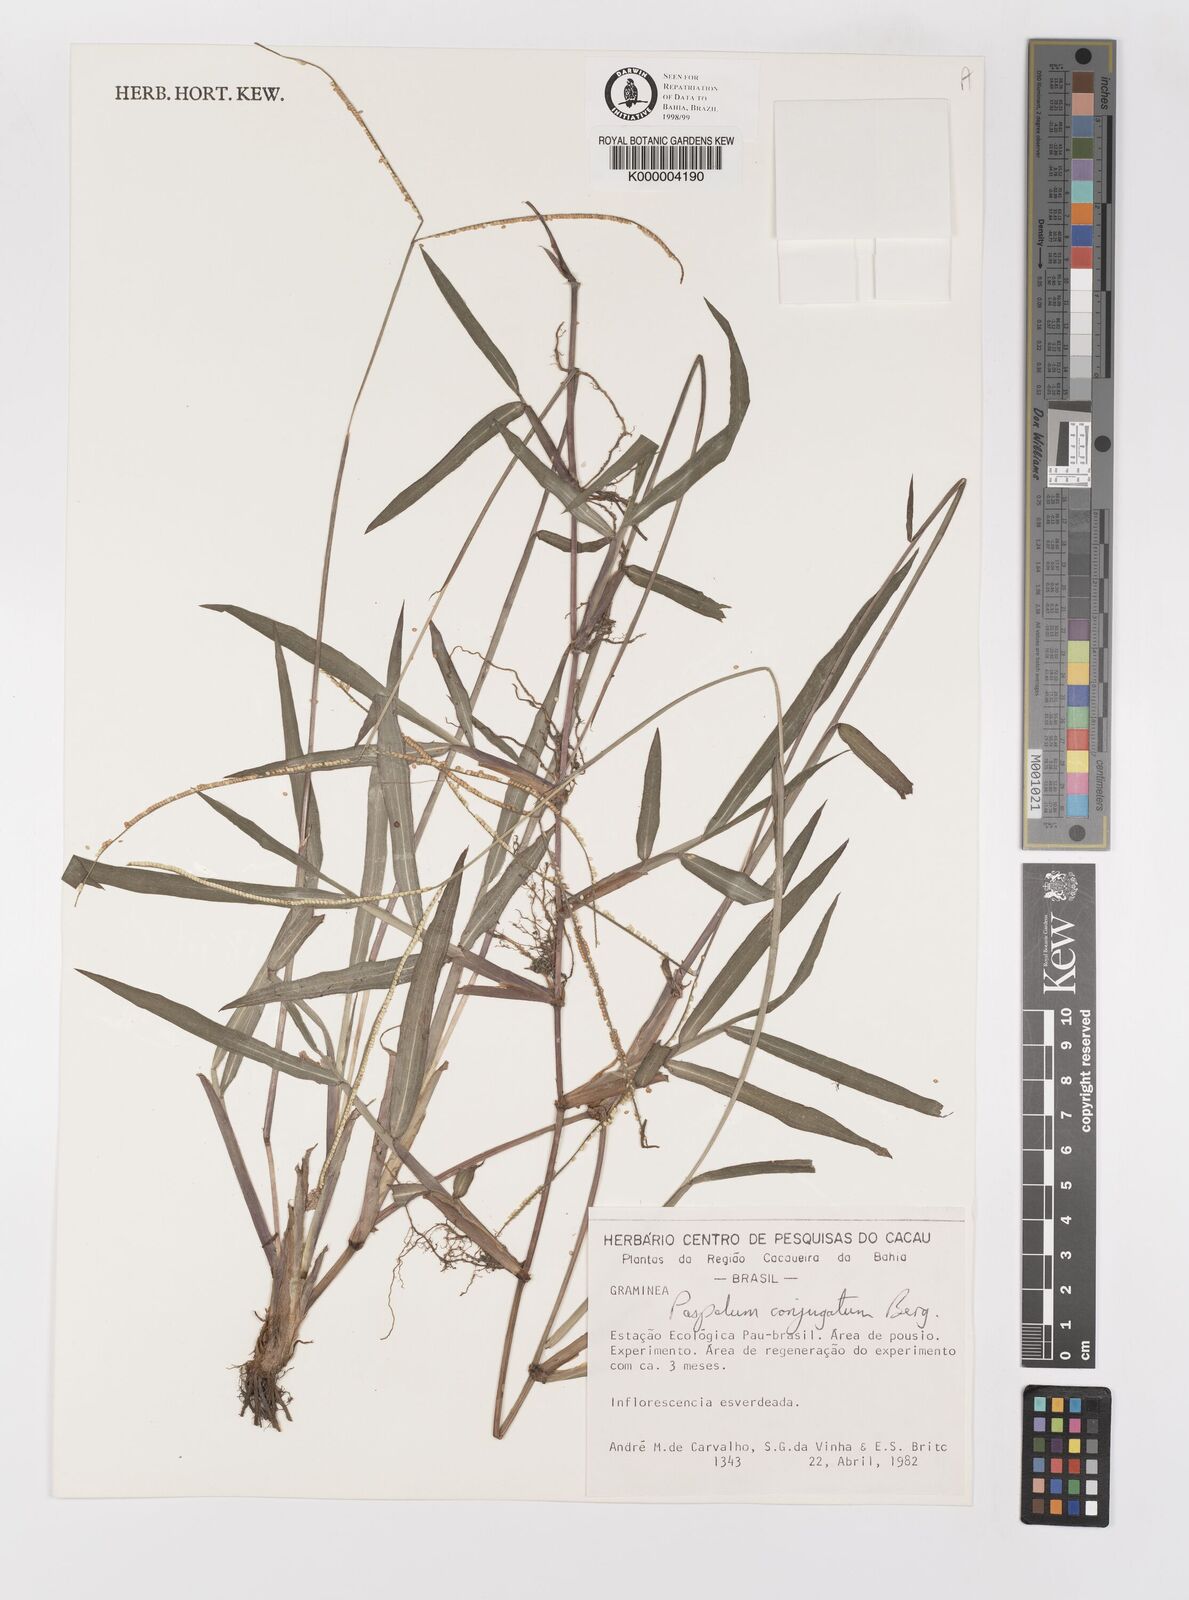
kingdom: Plantae
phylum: Tracheophyta
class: Liliopsida
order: Poales
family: Poaceae
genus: Paspalum
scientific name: Paspalum conjugatum
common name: Hilograss
